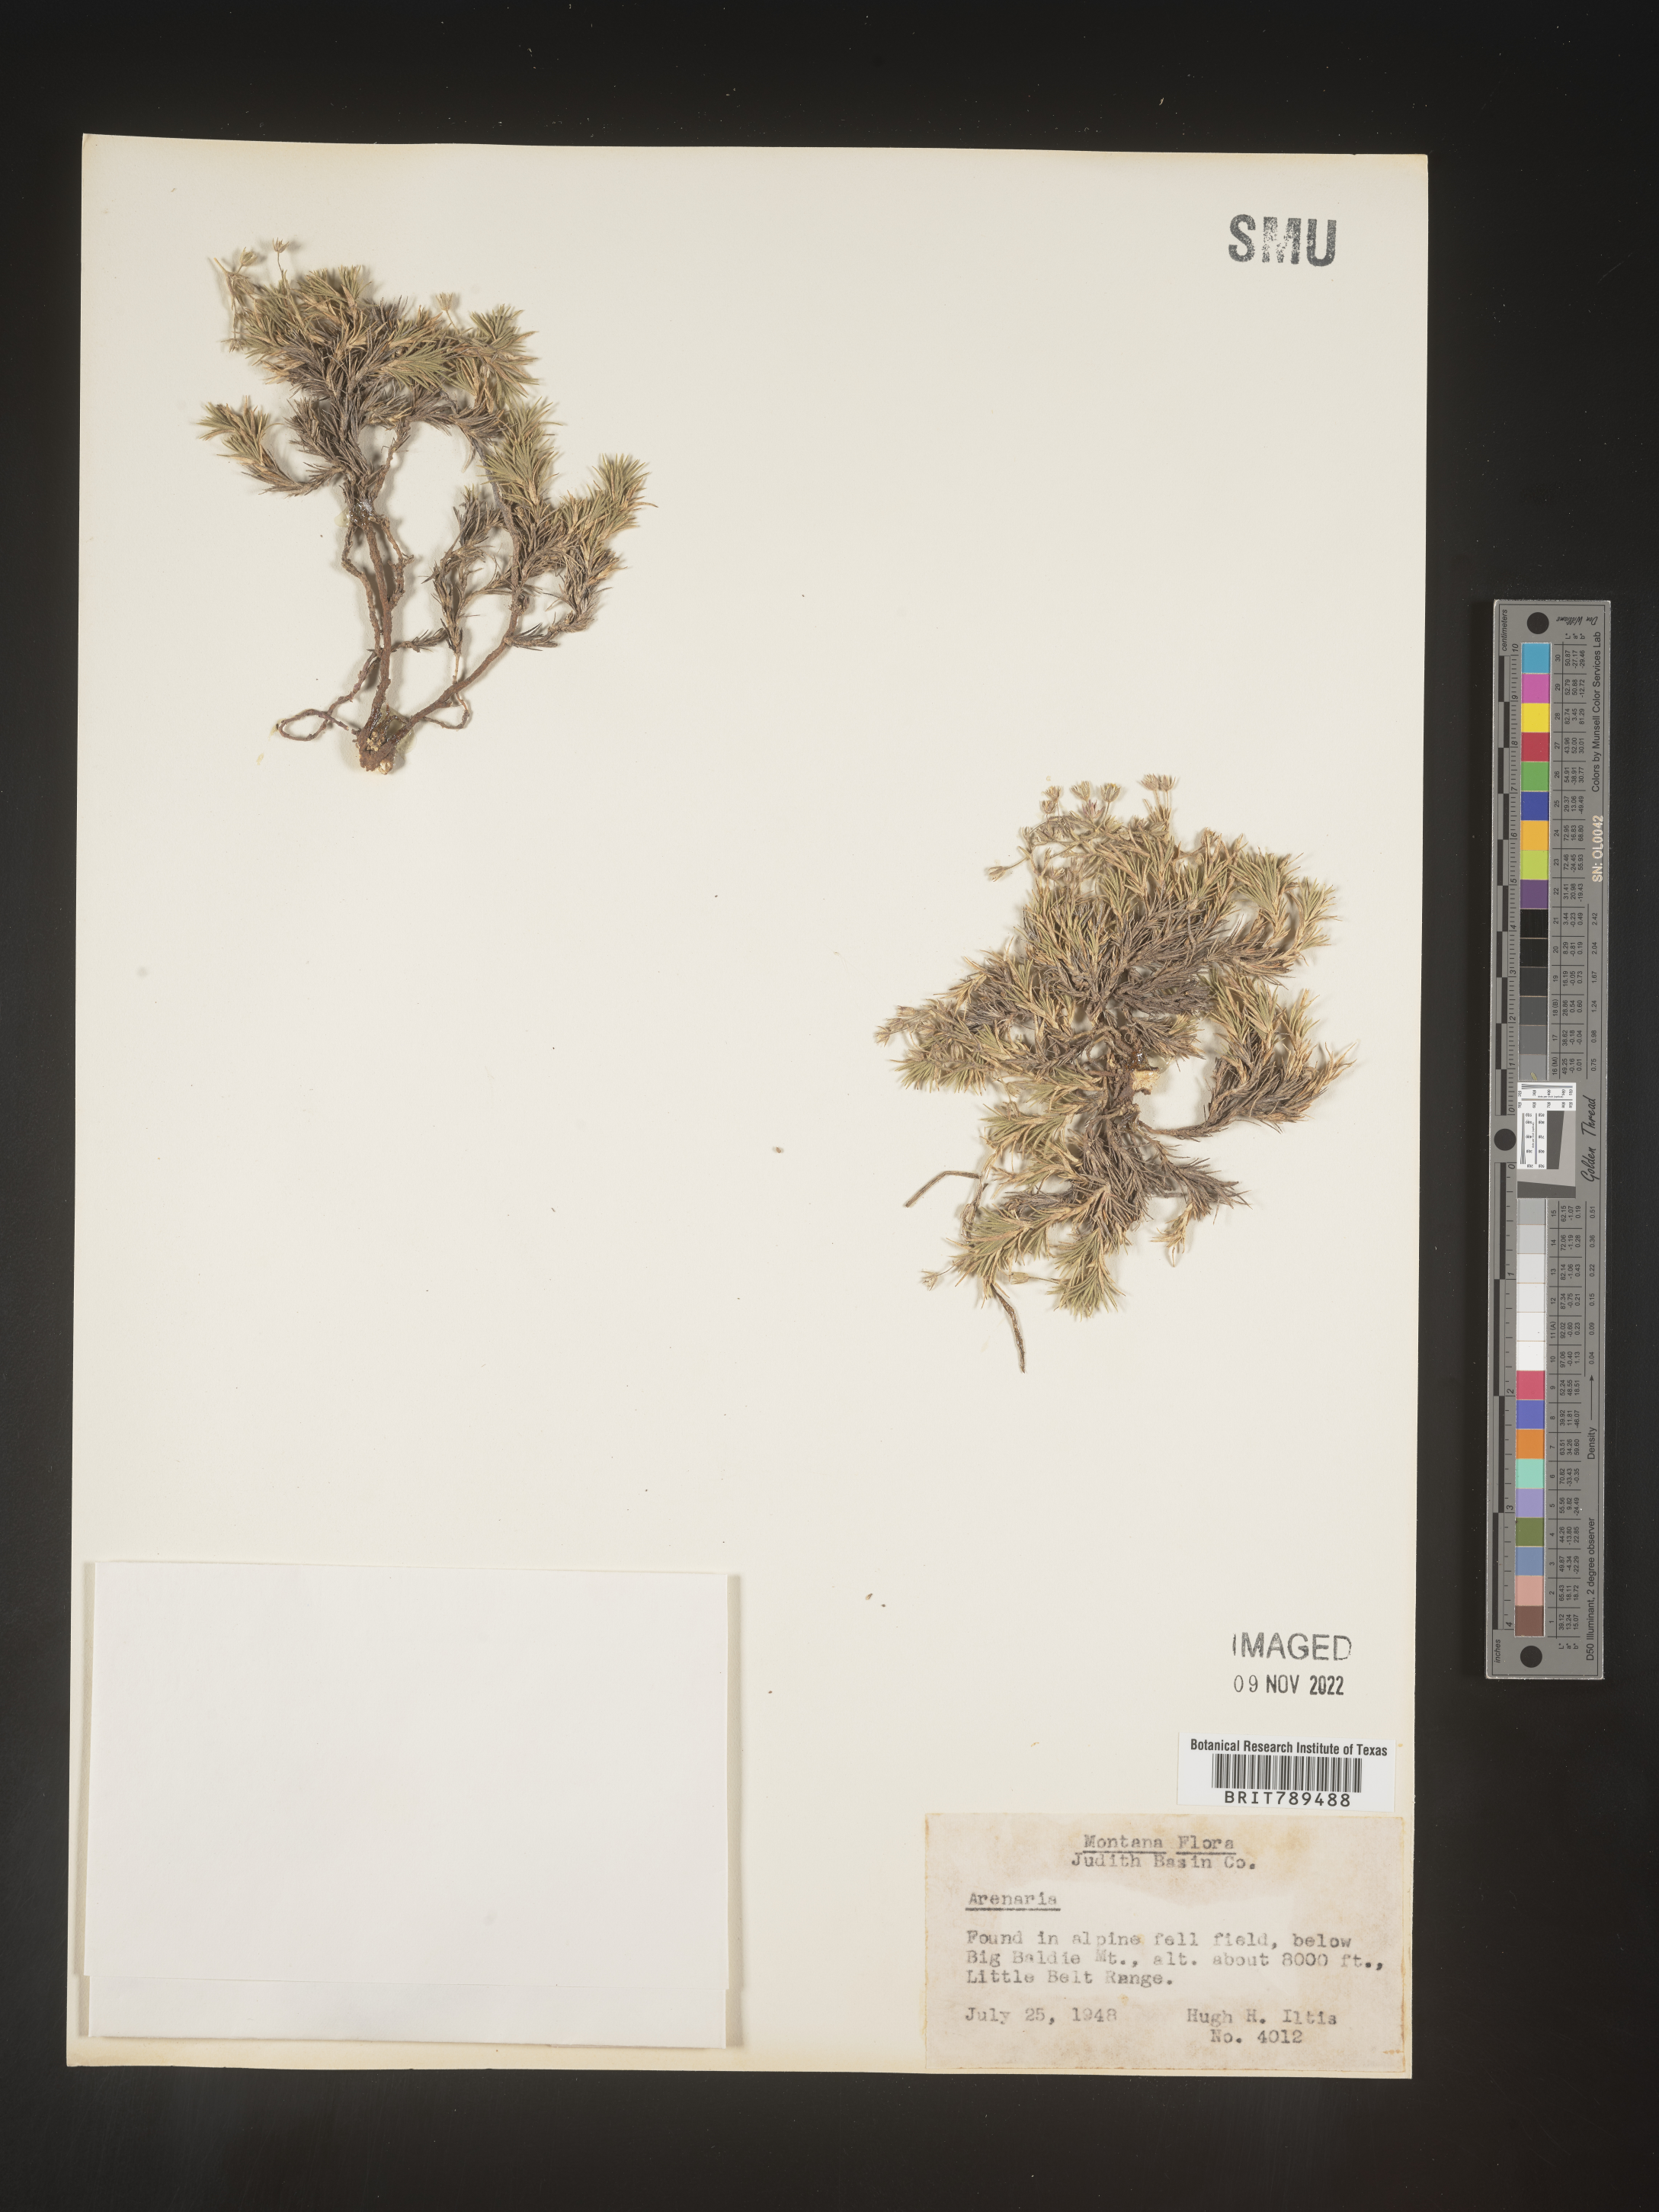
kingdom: Plantae
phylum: Tracheophyta
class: Magnoliopsida
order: Caryophyllales
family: Caryophyllaceae
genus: Arenaria
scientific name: Arenaria
